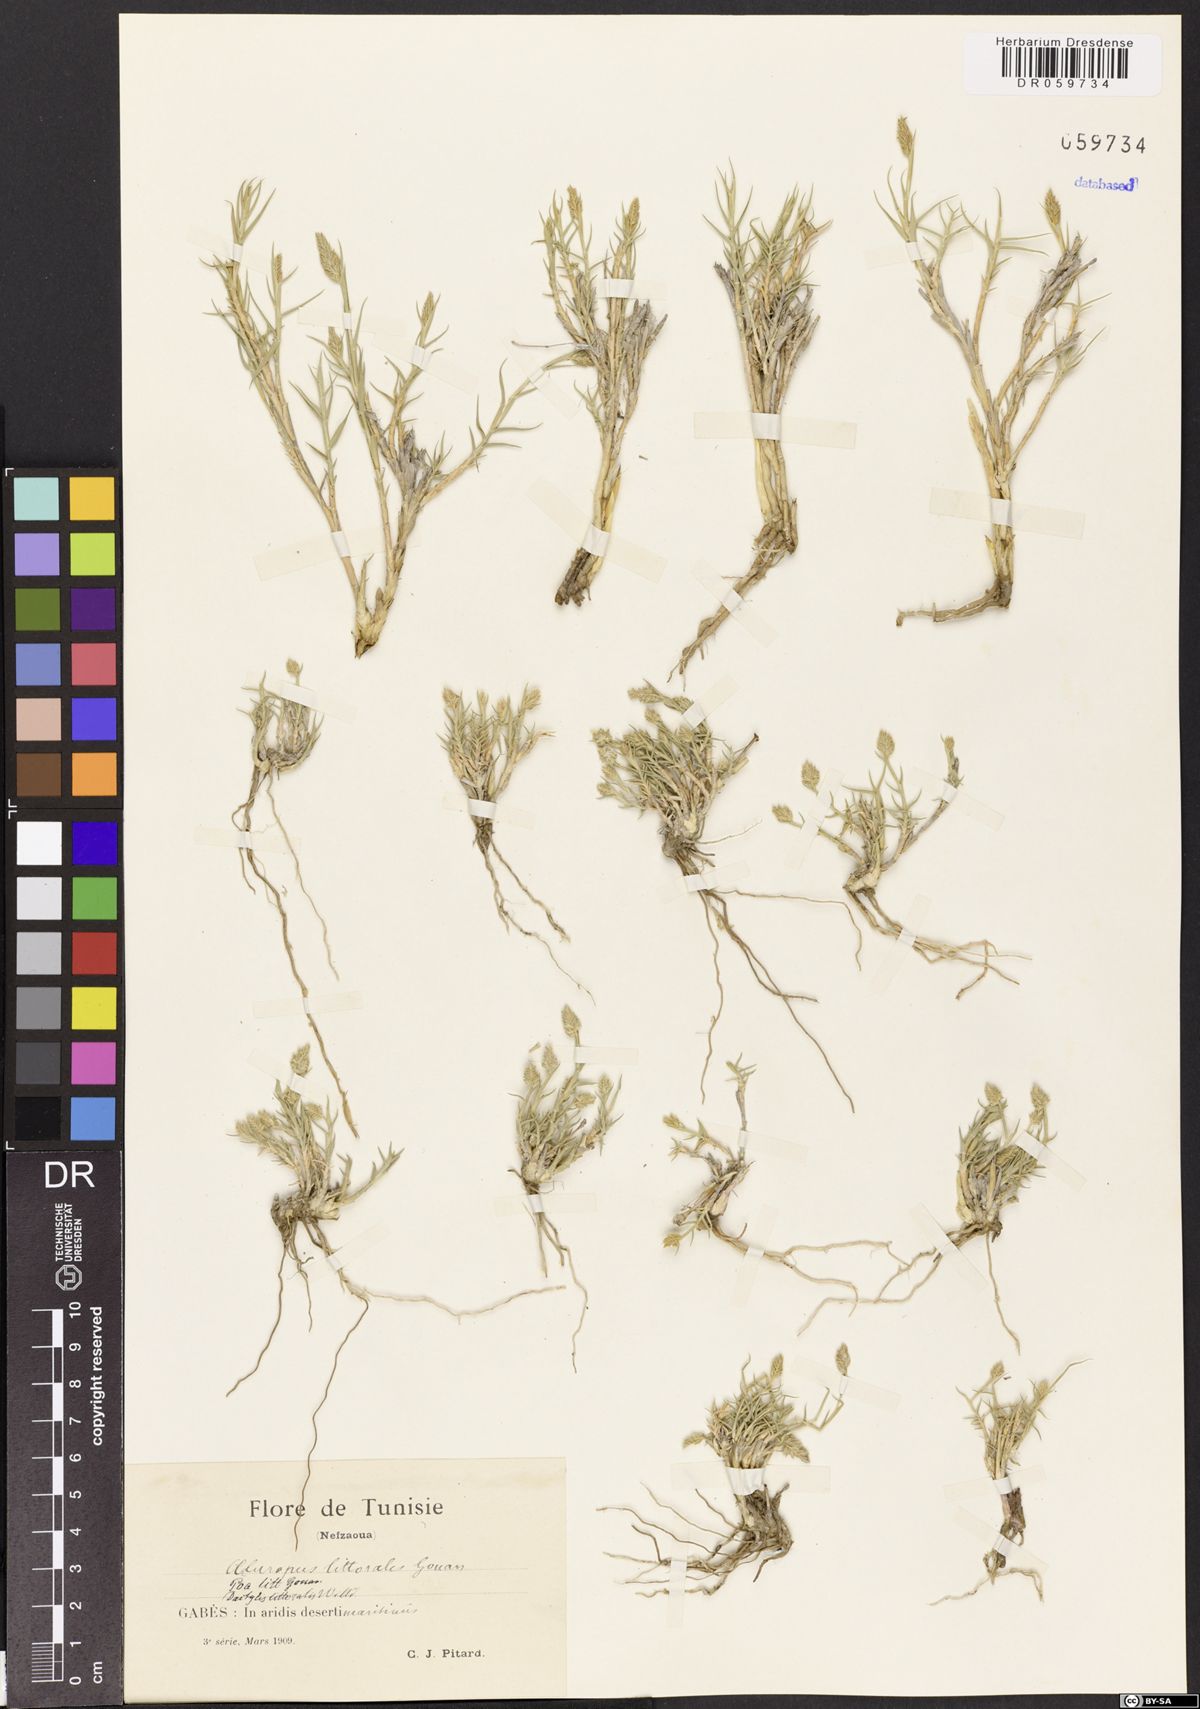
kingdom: Plantae
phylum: Tracheophyta
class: Liliopsida
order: Poales
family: Poaceae
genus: Aeluropus
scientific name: Aeluropus littoralis
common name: Indian walnut
